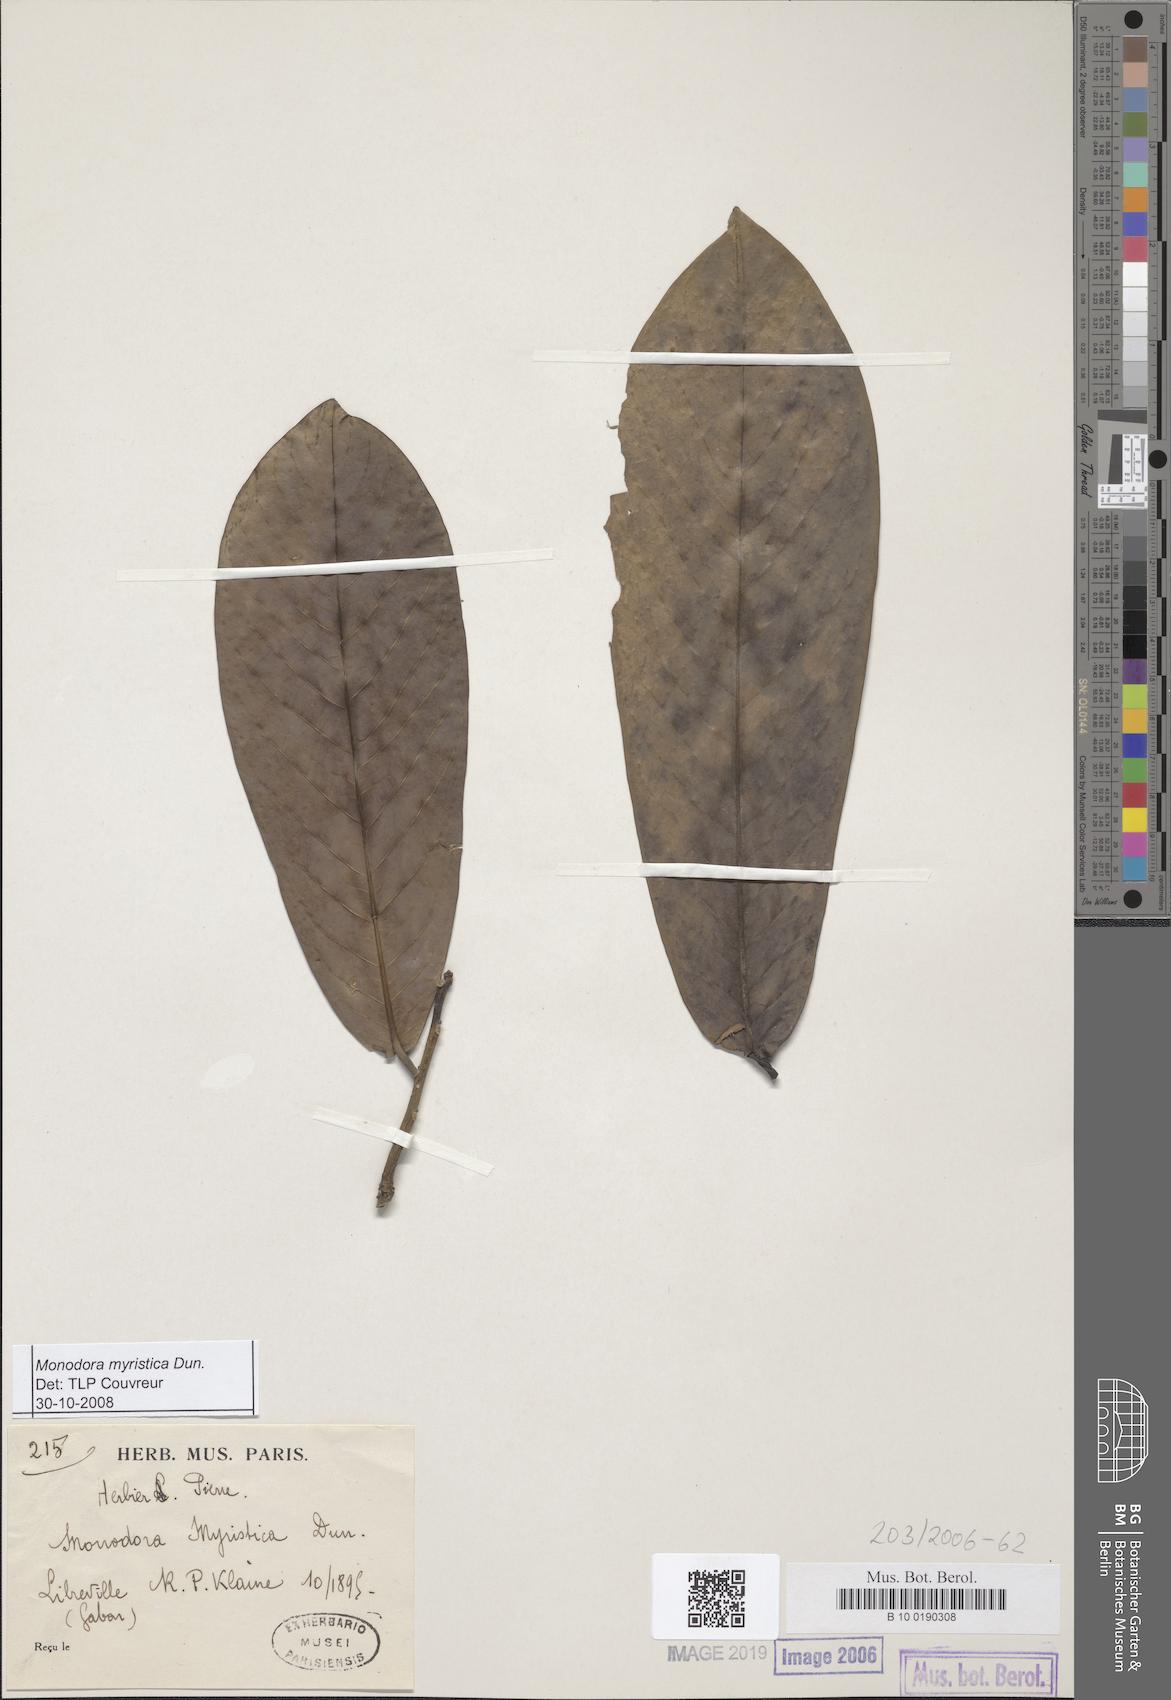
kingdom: Plantae
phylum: Tracheophyta
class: Magnoliopsida
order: Magnoliales
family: Annonaceae
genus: Monodora
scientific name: Monodora myristica
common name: African nutmeg
